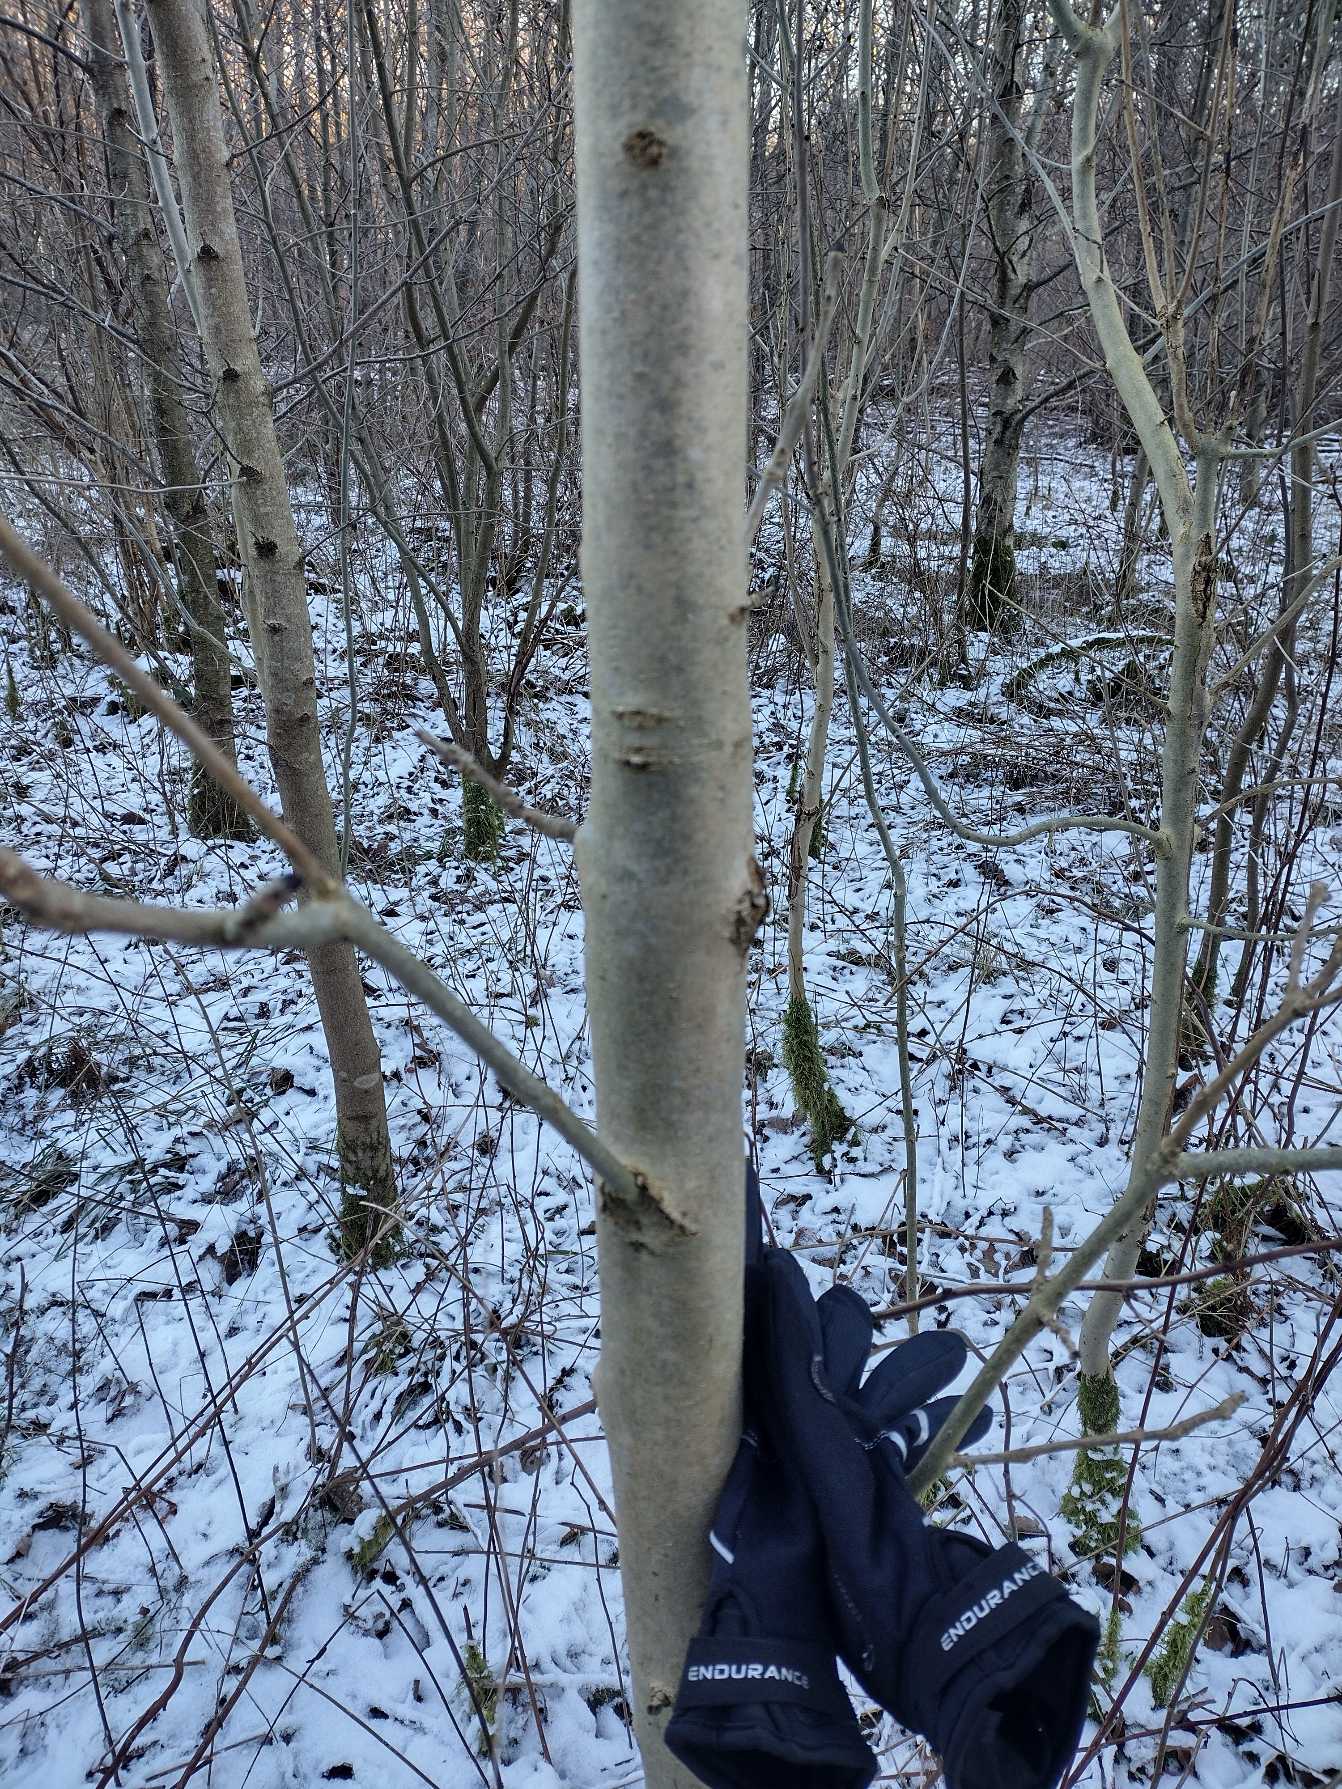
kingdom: Plantae
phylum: Tracheophyta
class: Magnoliopsida
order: Lamiales
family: Oleaceae
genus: Fraxinus
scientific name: Fraxinus excelsior
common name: Ask
